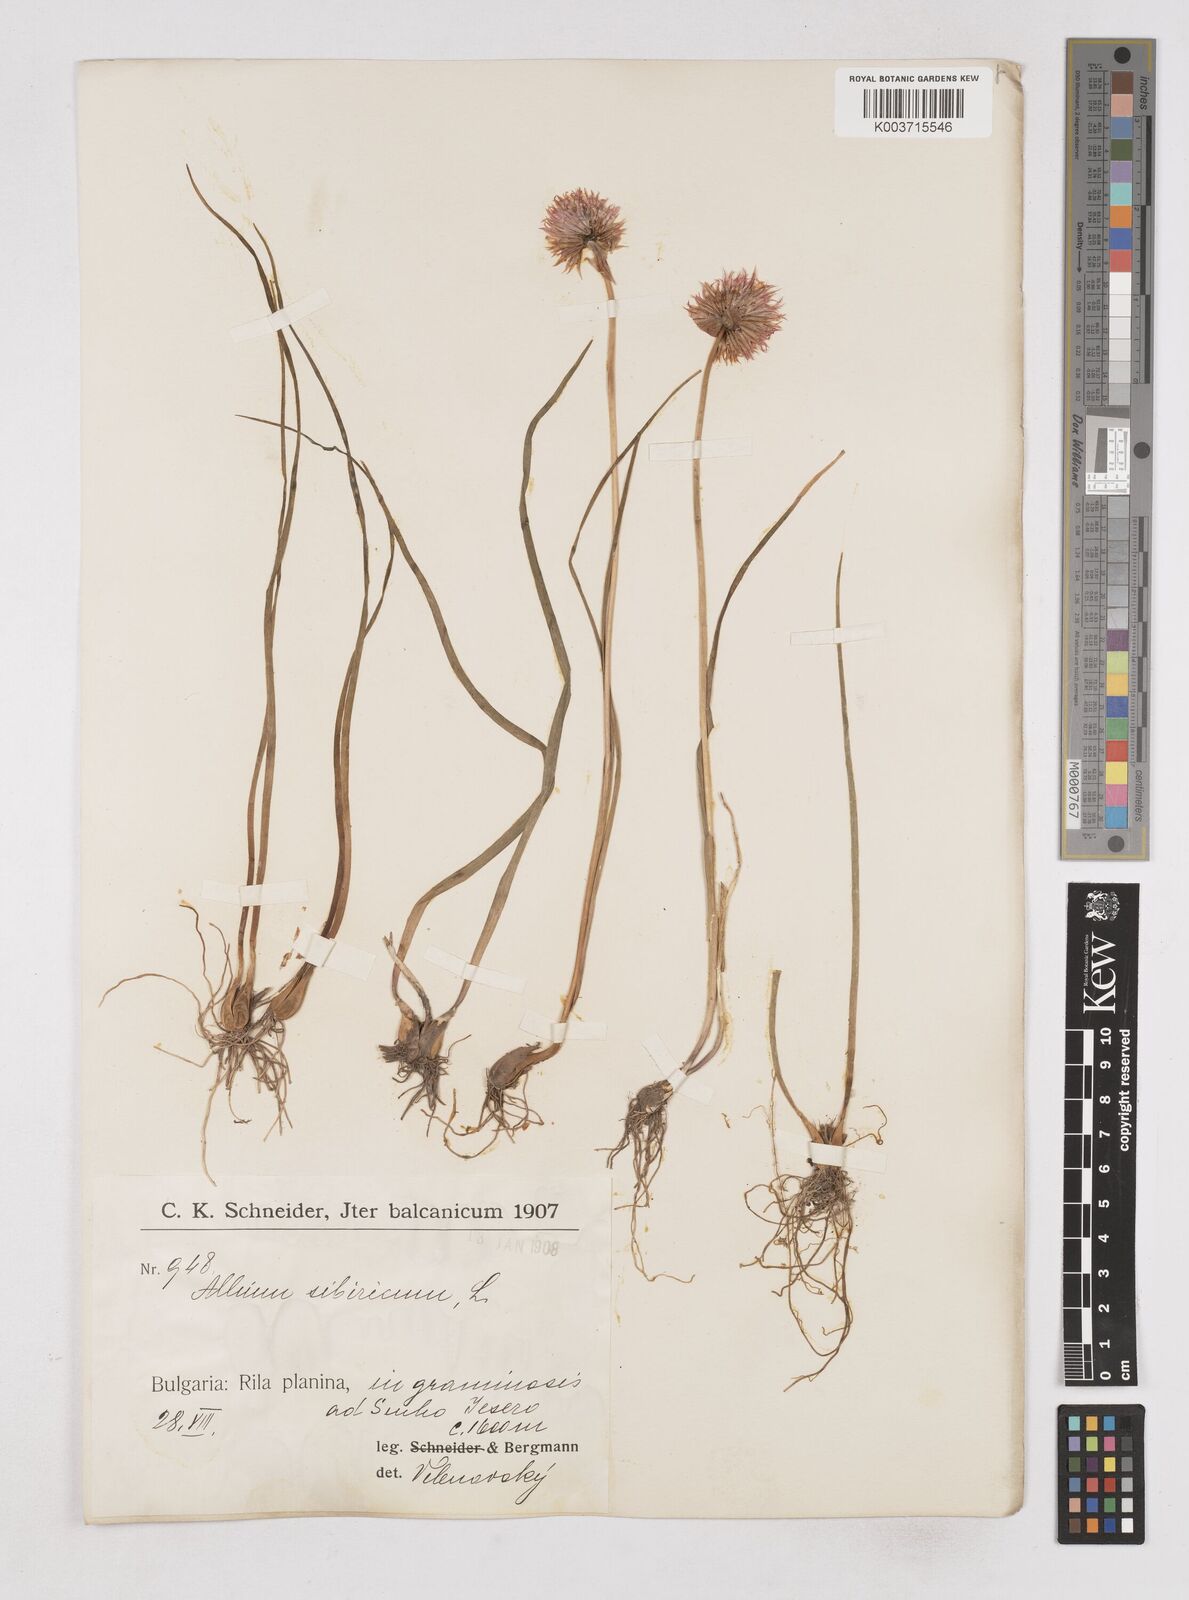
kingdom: Plantae
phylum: Tracheophyta
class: Liliopsida
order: Asparagales
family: Amaryllidaceae
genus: Allium
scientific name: Allium schoenoprasum
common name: Chives
